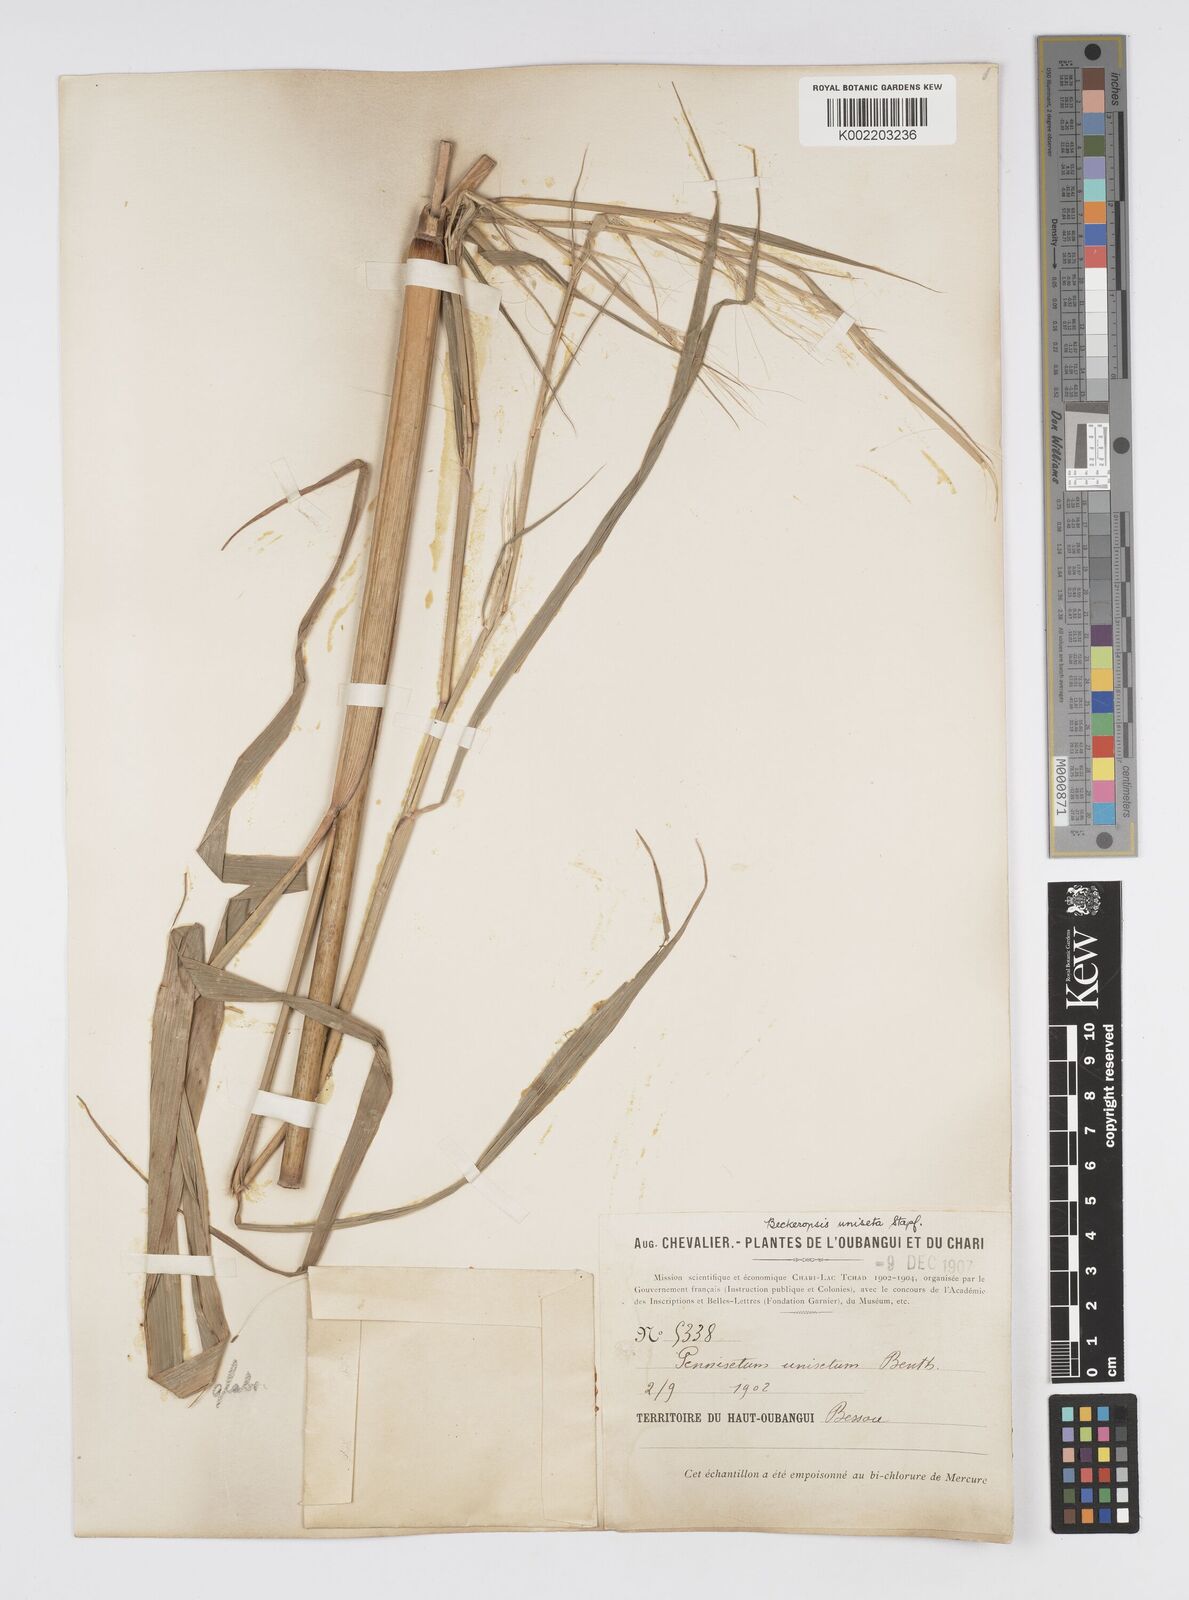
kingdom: Plantae
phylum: Tracheophyta
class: Liliopsida
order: Poales
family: Poaceae
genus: Cenchrus
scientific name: Cenchrus unisetus
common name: Natal grass
